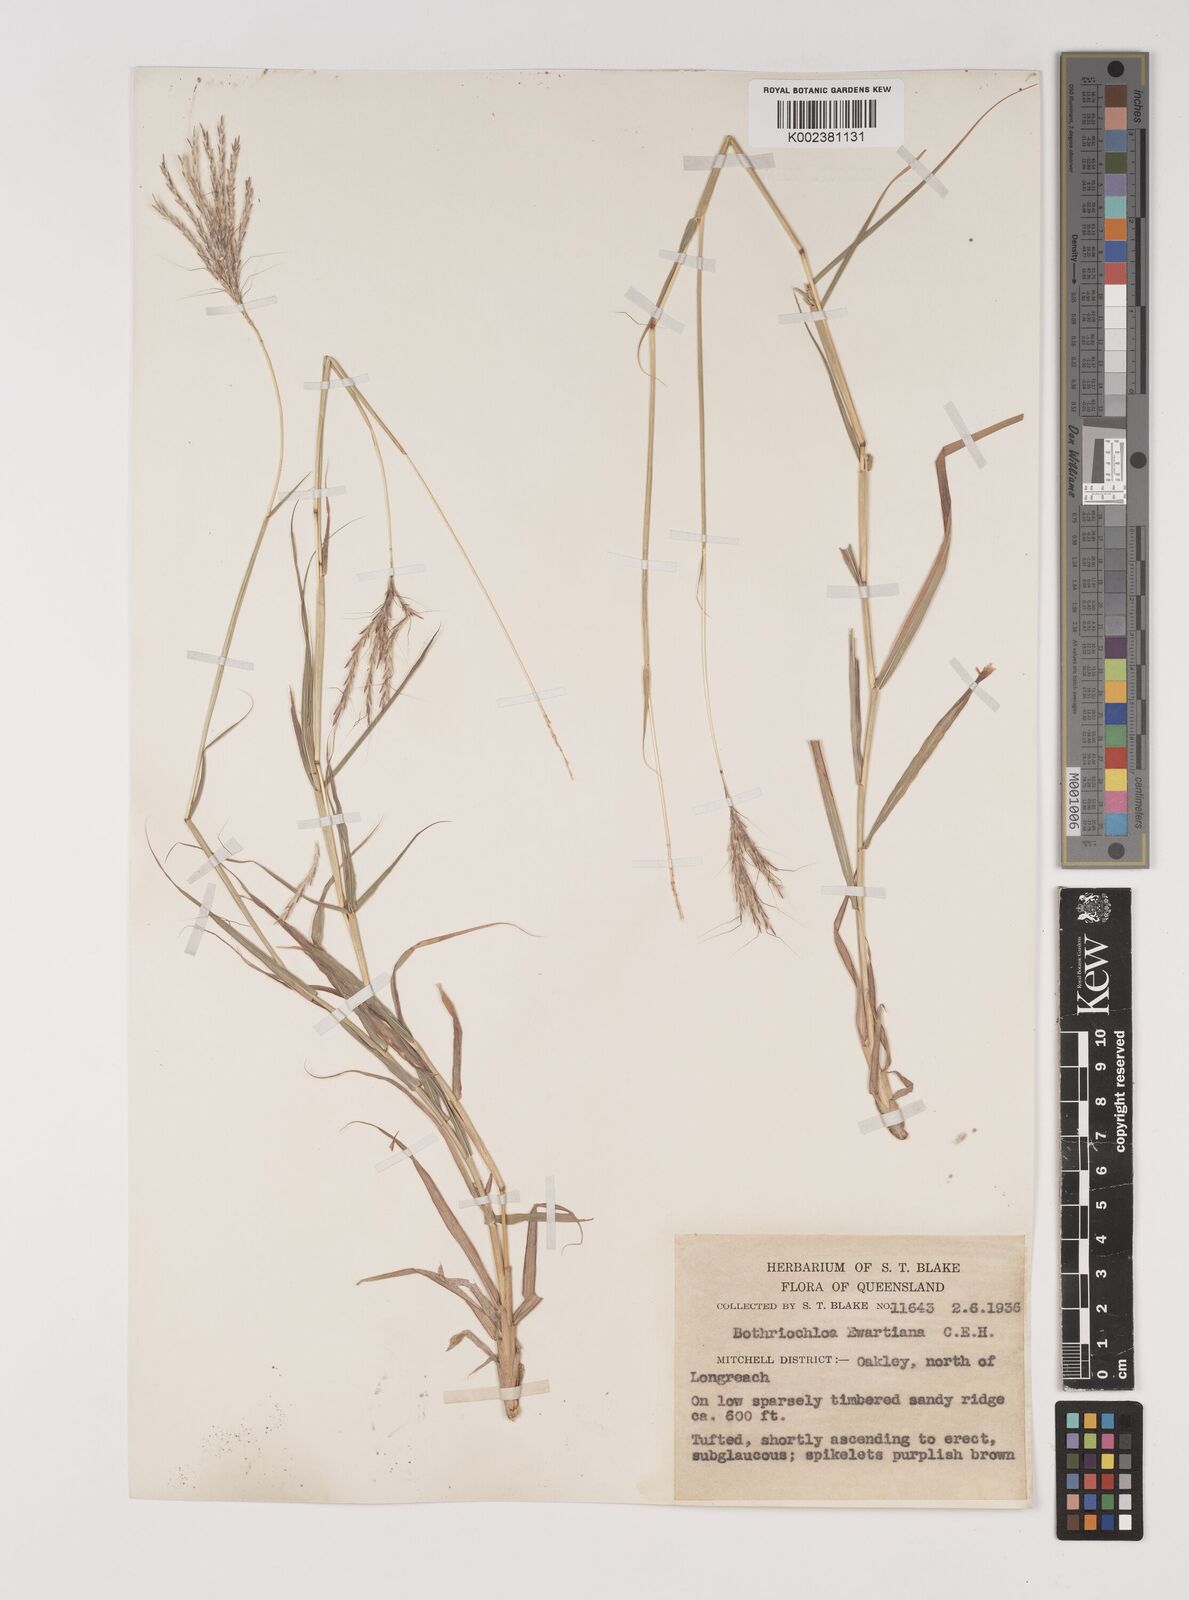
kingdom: Plantae
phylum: Tracheophyta
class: Liliopsida
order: Poales
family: Poaceae
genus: Bothriochloa
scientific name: Bothriochloa ewartiana
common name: Desert-bluegrass
